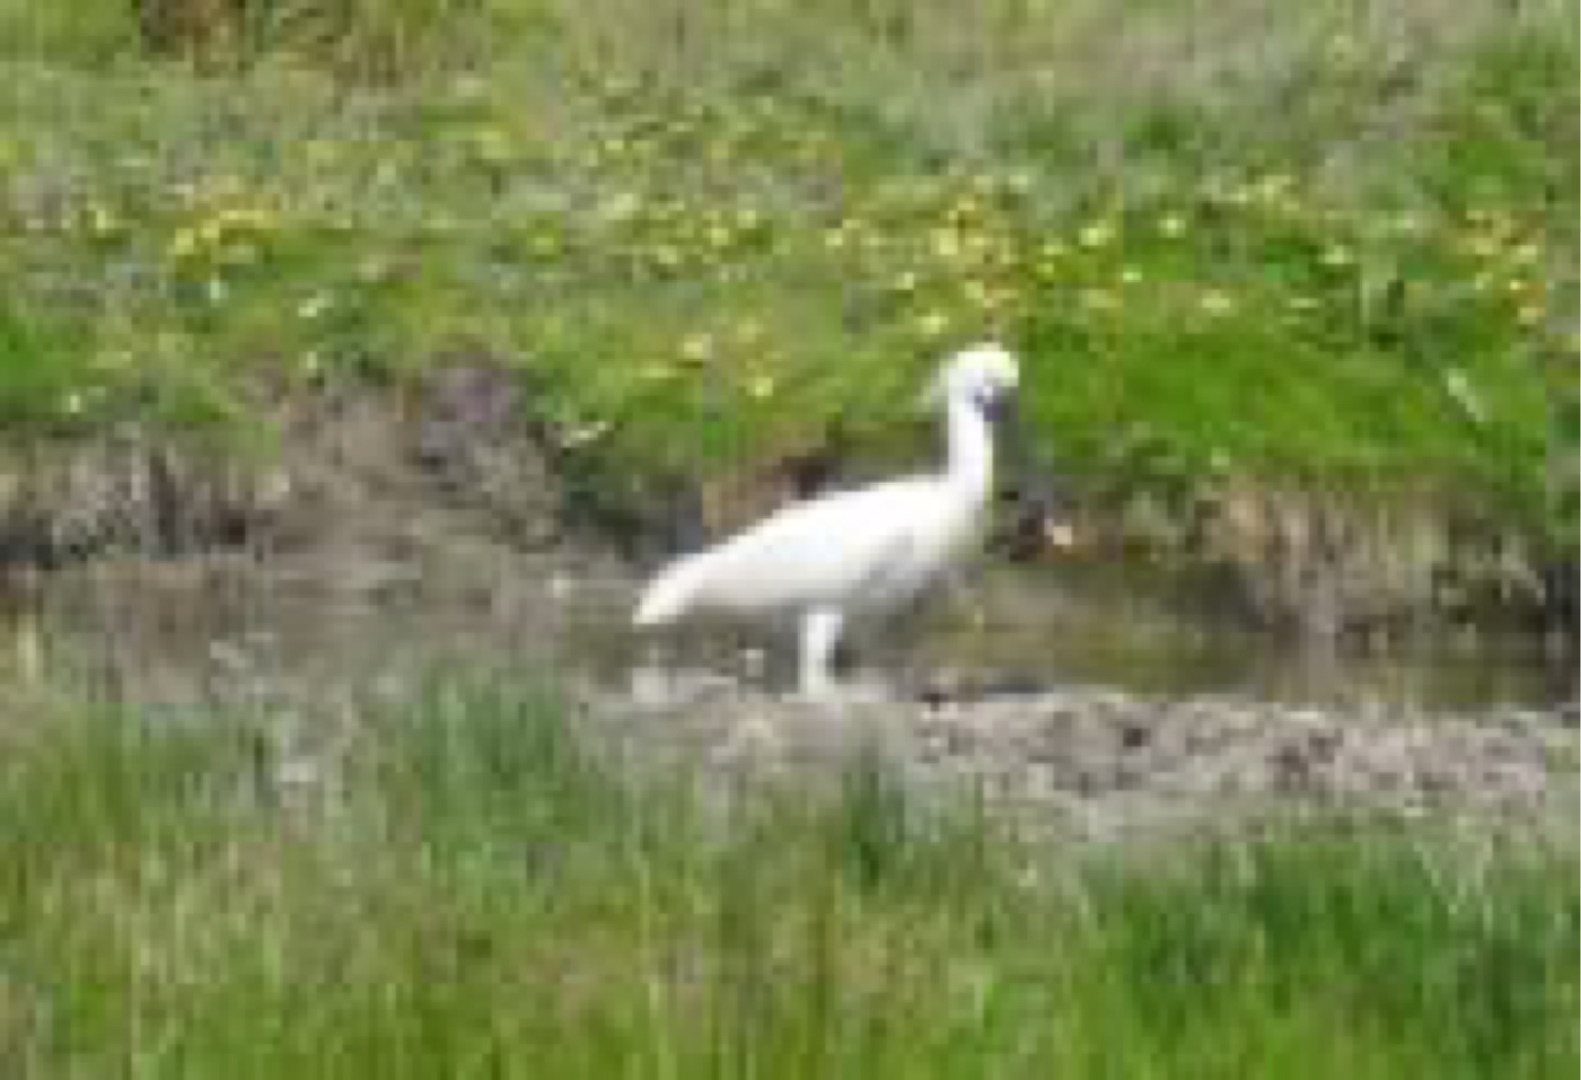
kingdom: Animalia
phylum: Chordata
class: Aves
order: Pelecaniformes
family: Threskiornithidae
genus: Platalea
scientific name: Platalea leucorodia
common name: Skestork
